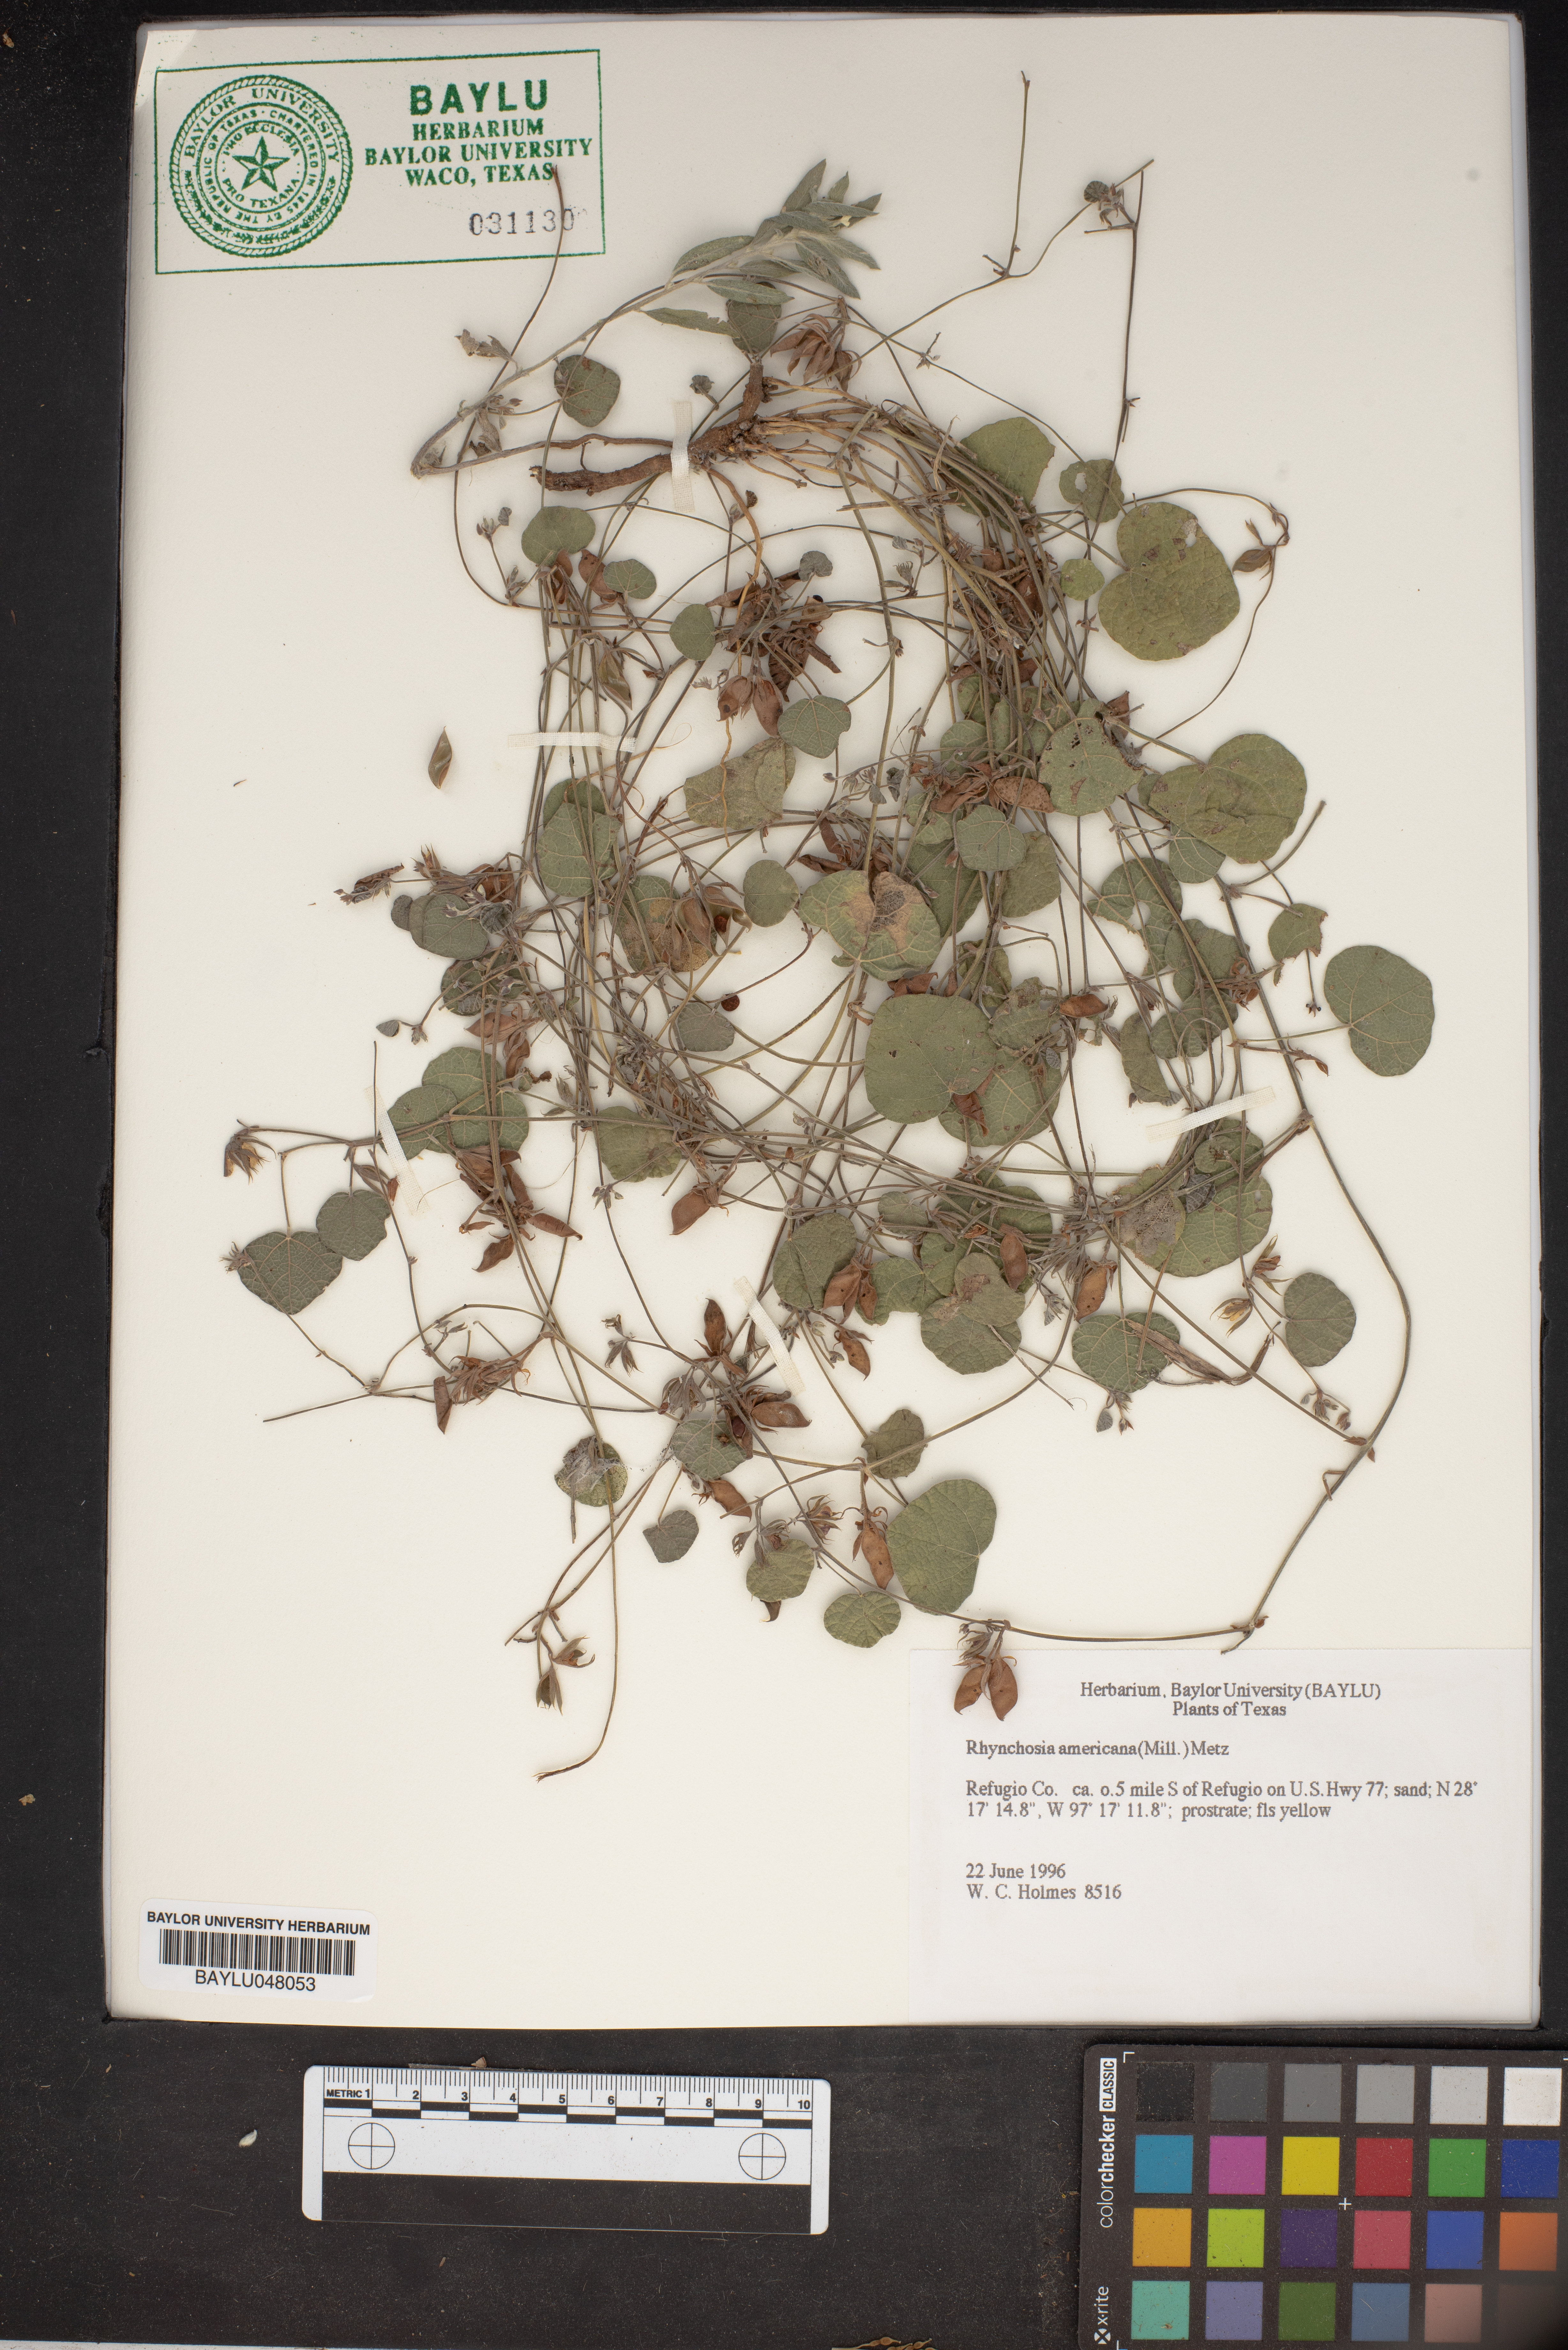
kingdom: Plantae
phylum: Tracheophyta
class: Magnoliopsida
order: Fabales
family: Fabaceae
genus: Rhynchosia
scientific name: Rhynchosia americana
